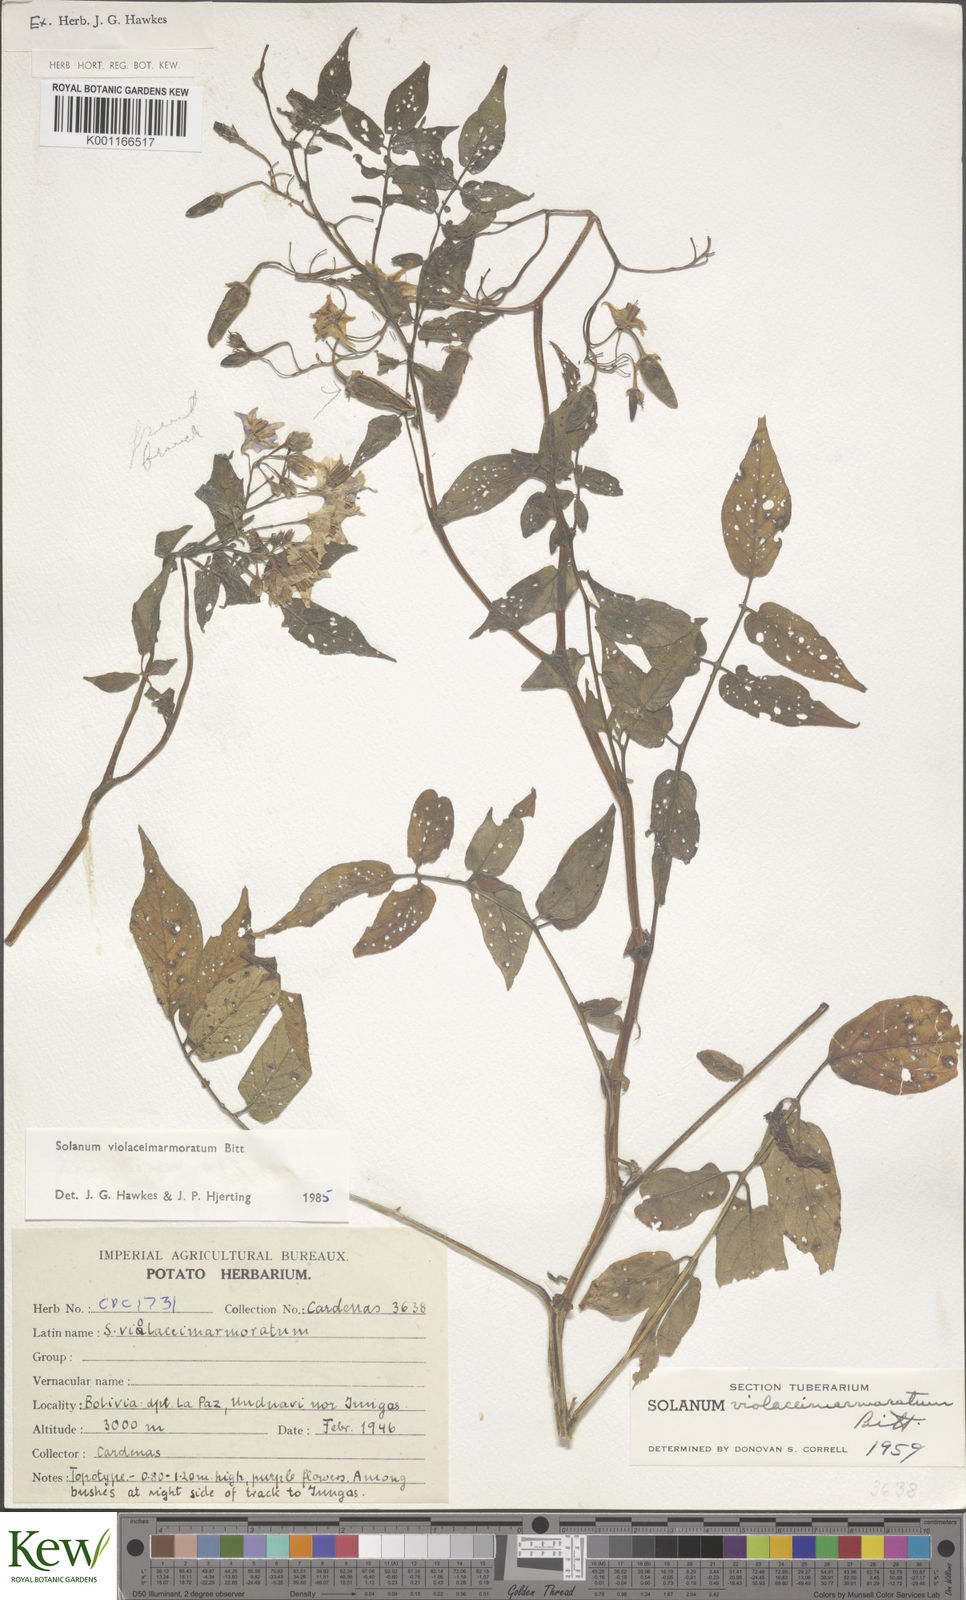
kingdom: Plantae
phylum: Tracheophyta
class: Magnoliopsida
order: Solanales
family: Solanaceae
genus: Solanum
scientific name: Solanum violaceimarmoratum
